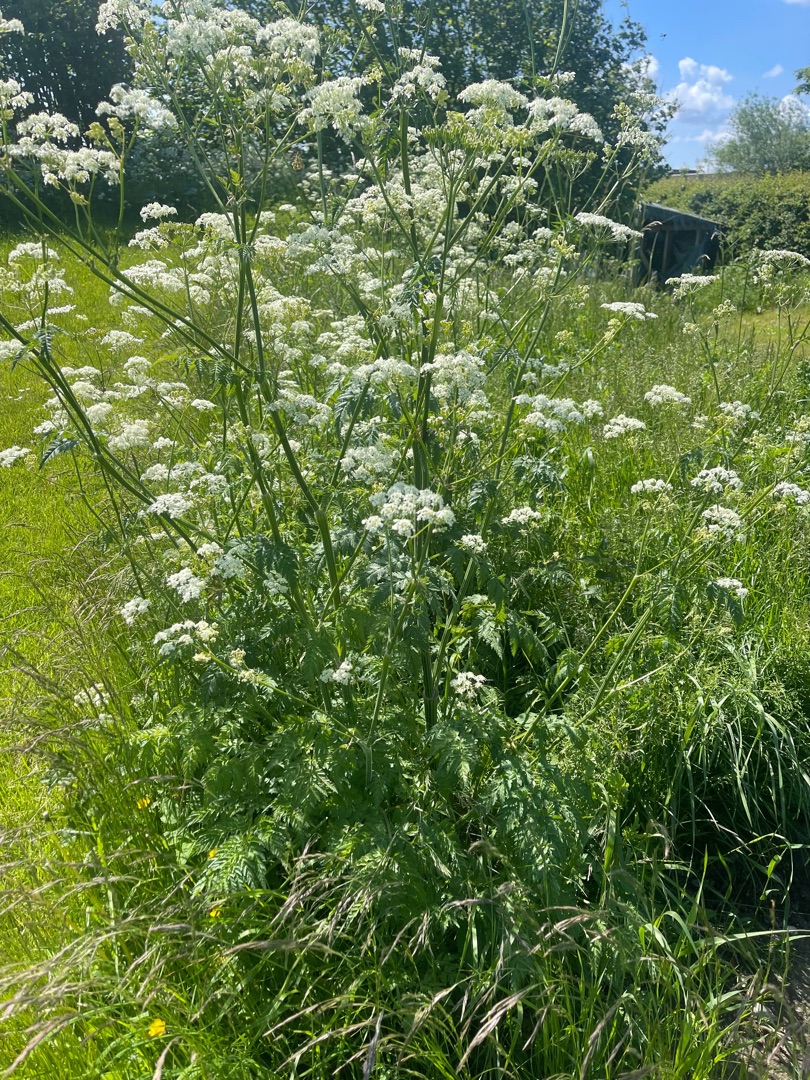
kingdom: Plantae
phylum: Tracheophyta
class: Magnoliopsida
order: Apiales
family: Apiaceae
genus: Anthriscus
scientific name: Anthriscus sylvestris
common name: Vild kørvel
